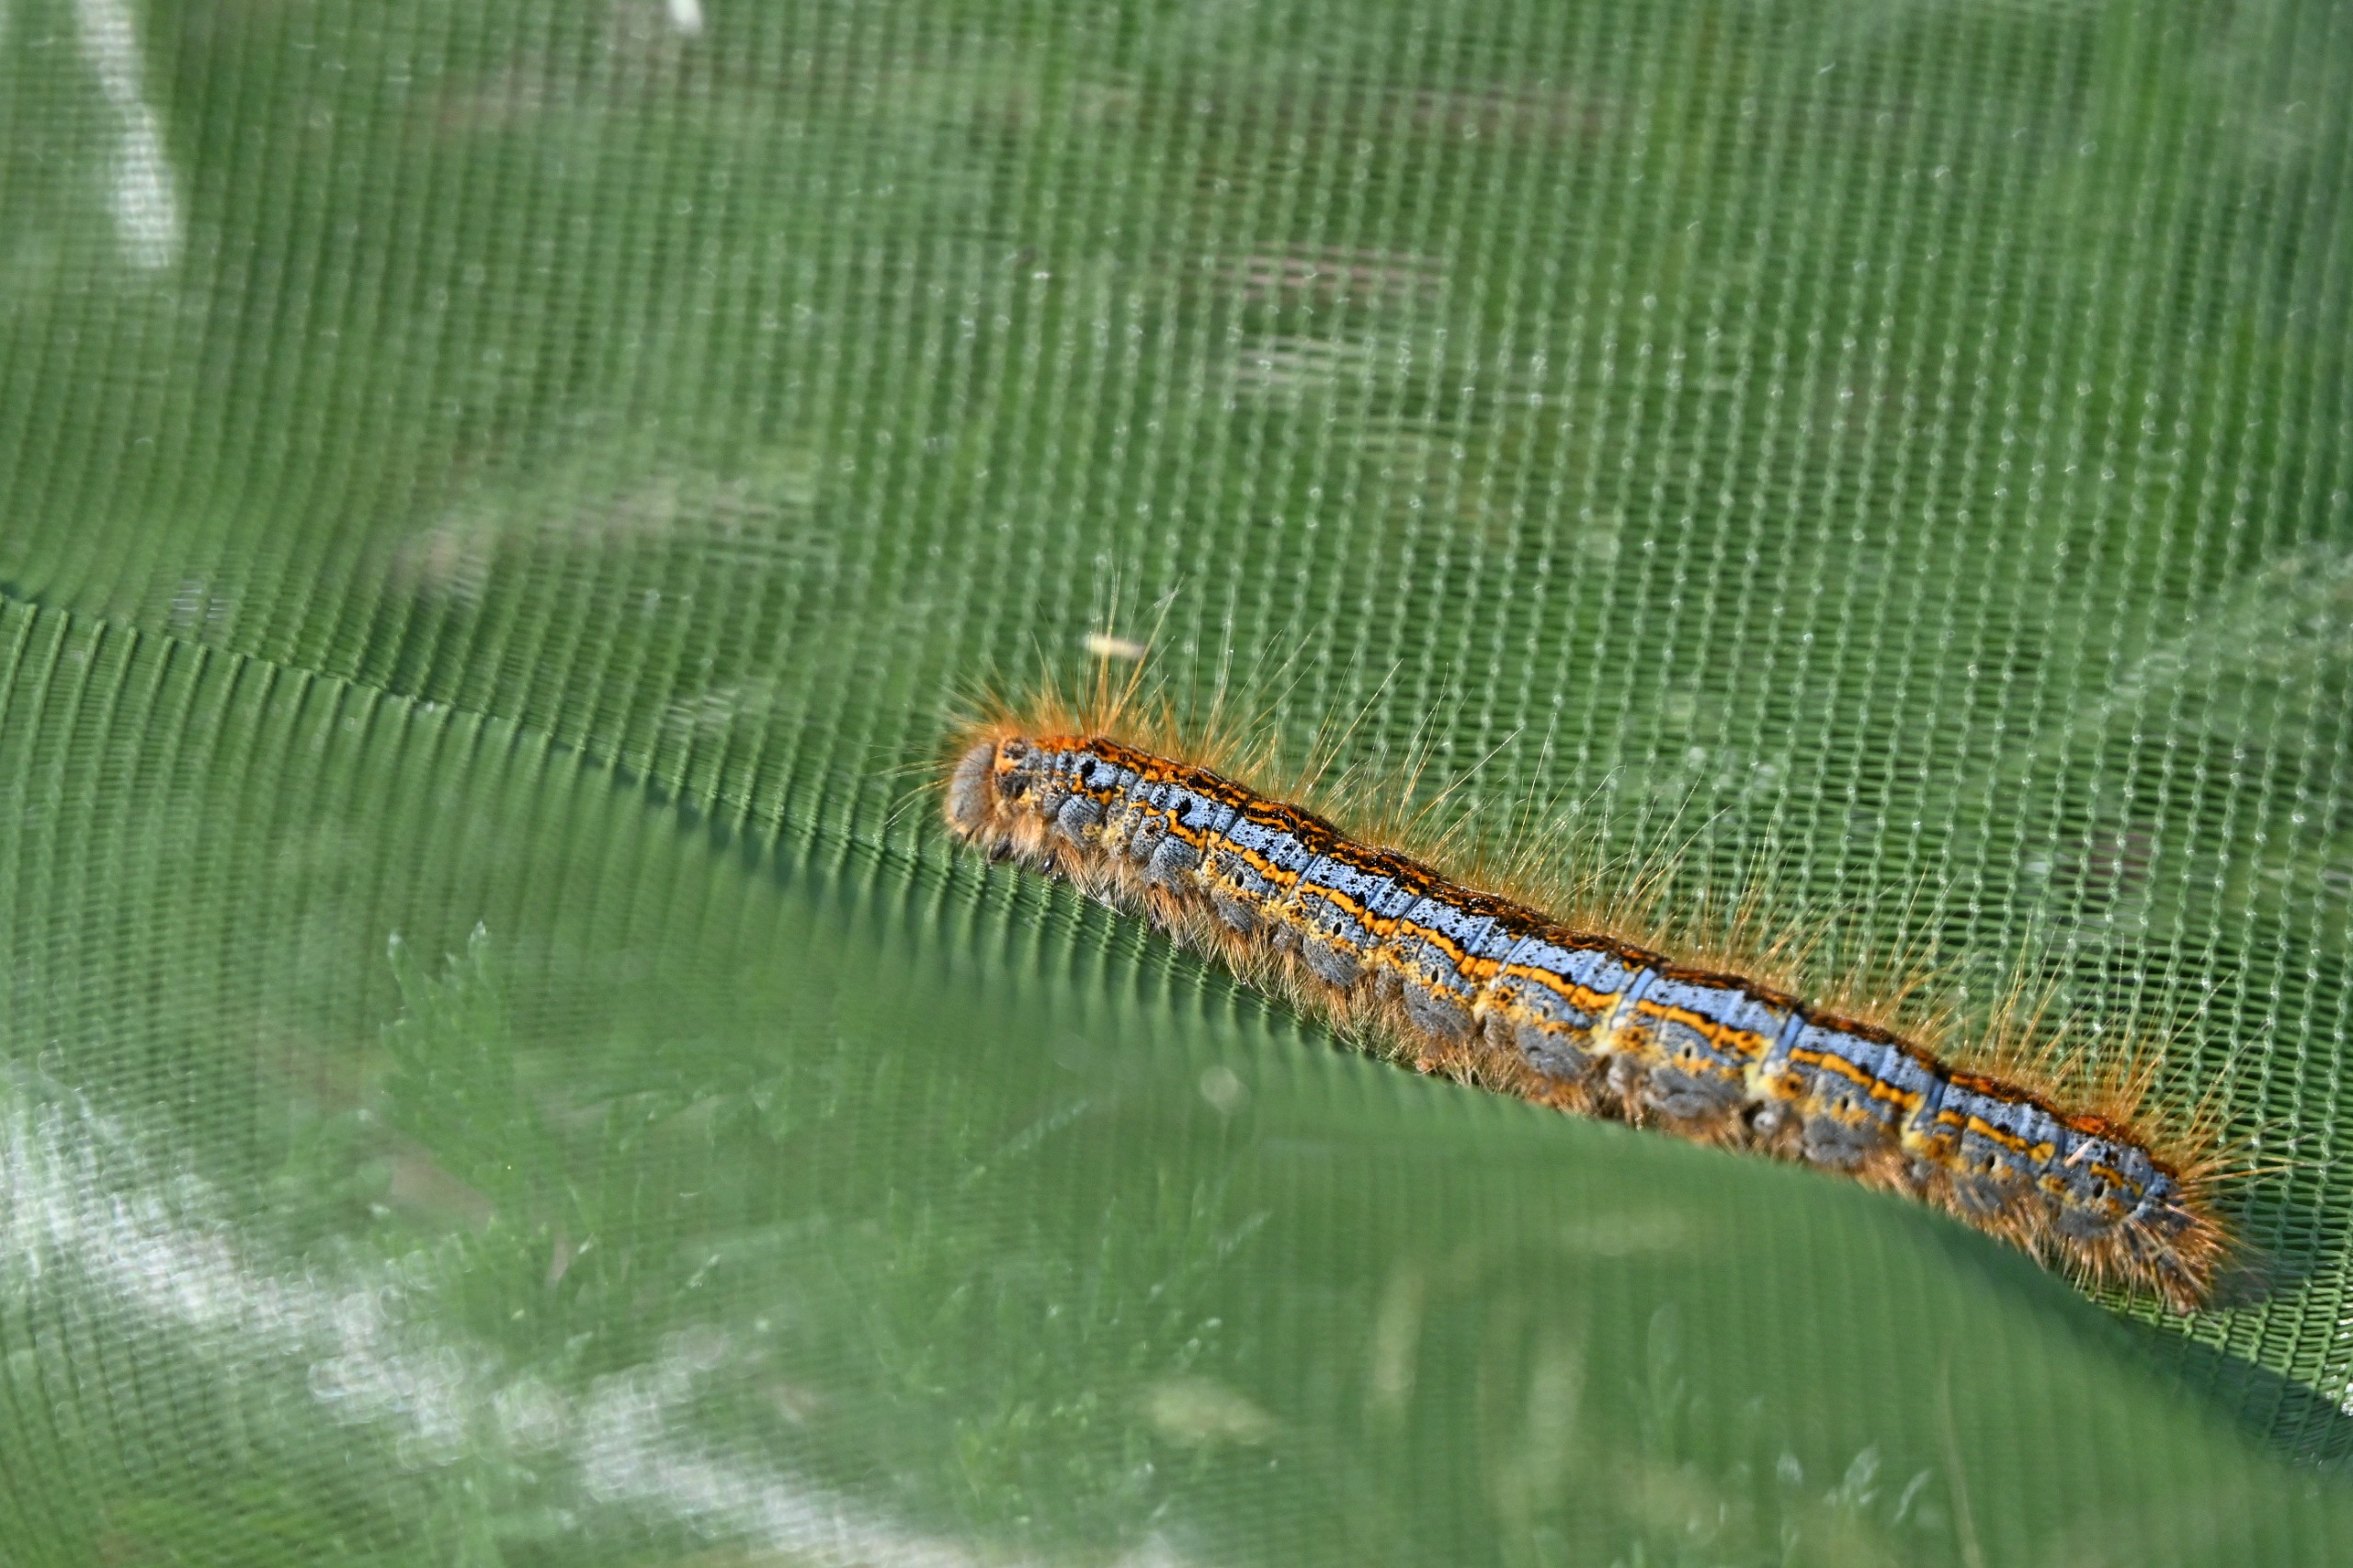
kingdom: Animalia
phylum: Arthropoda
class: Insecta
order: Lepidoptera
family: Lasiocampidae
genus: Malacosoma
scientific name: Malacosoma castrensis
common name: Redespinder
